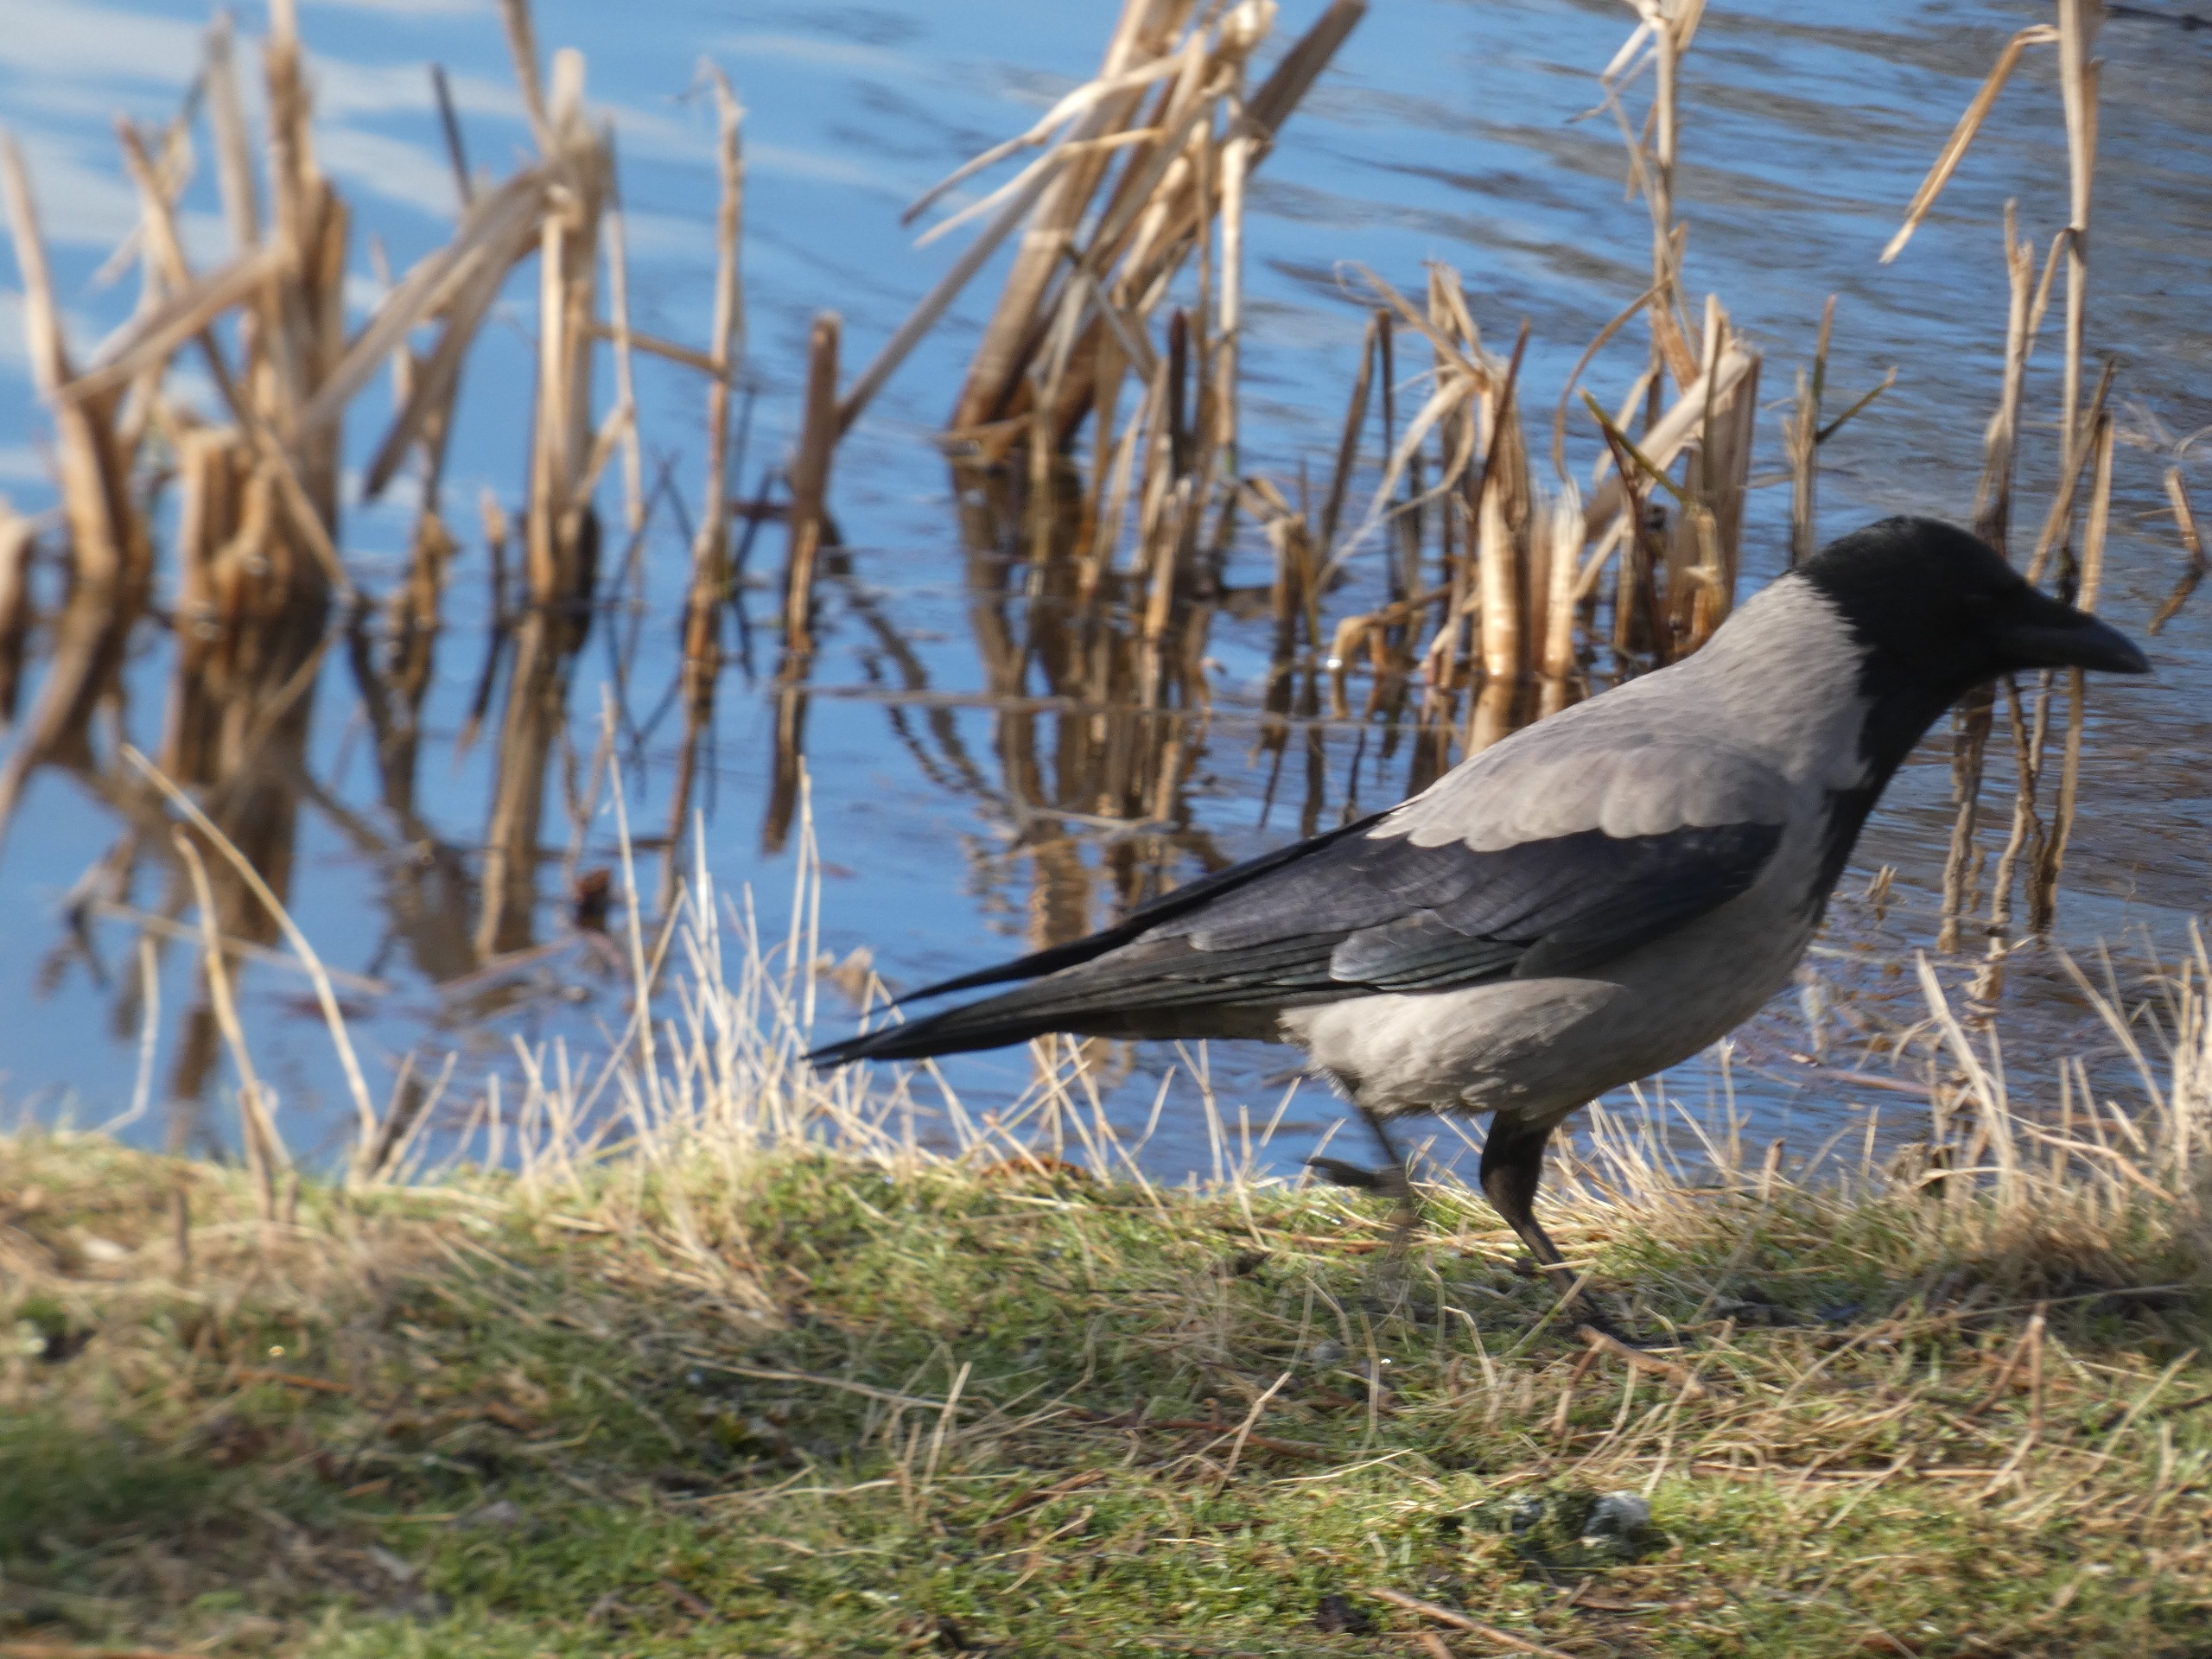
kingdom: Animalia
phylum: Chordata
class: Aves
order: Passeriformes
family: Corvidae
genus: Corvus
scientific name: Corvus cornix
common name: Gråkrage
